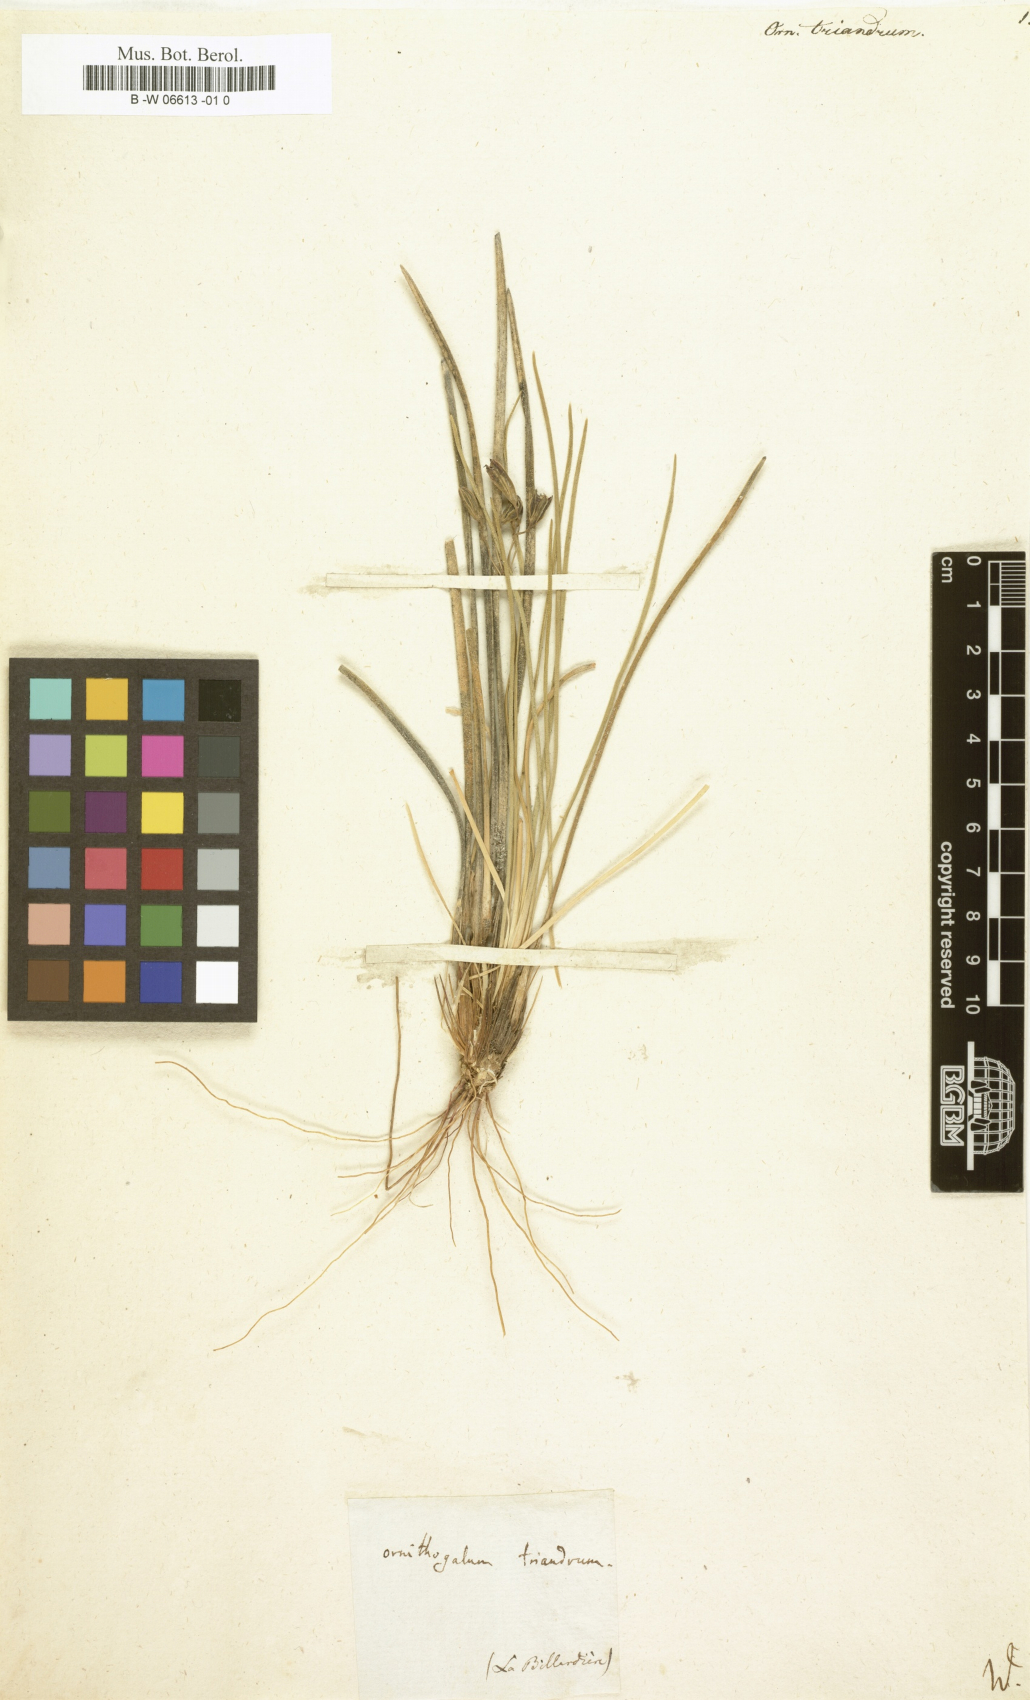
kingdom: Plantae
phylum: Tracheophyta
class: Liliopsida
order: Asparagales
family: Asparagaceae
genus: Thysanotus
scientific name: Thysanotus triandrus
